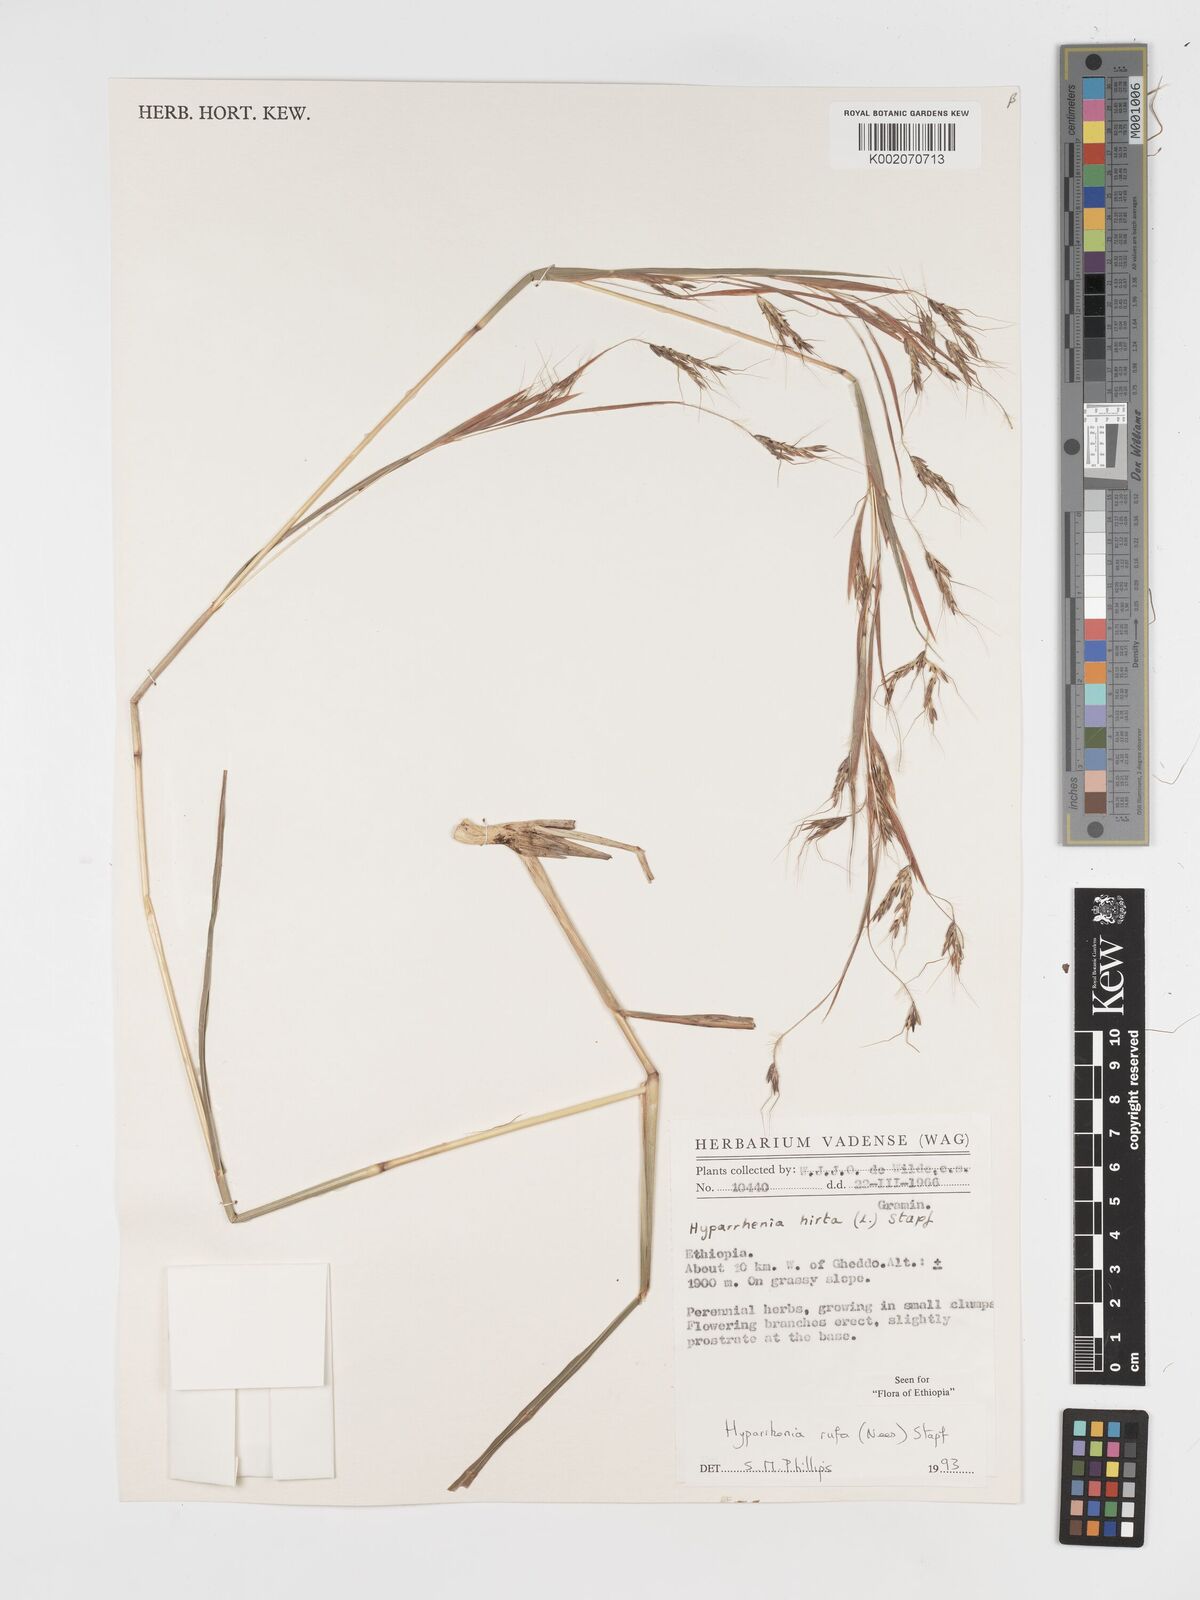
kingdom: Plantae
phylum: Tracheophyta
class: Liliopsida
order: Poales
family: Poaceae
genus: Hyparrhenia
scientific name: Hyparrhenia rufa
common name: Jaraguagrass
